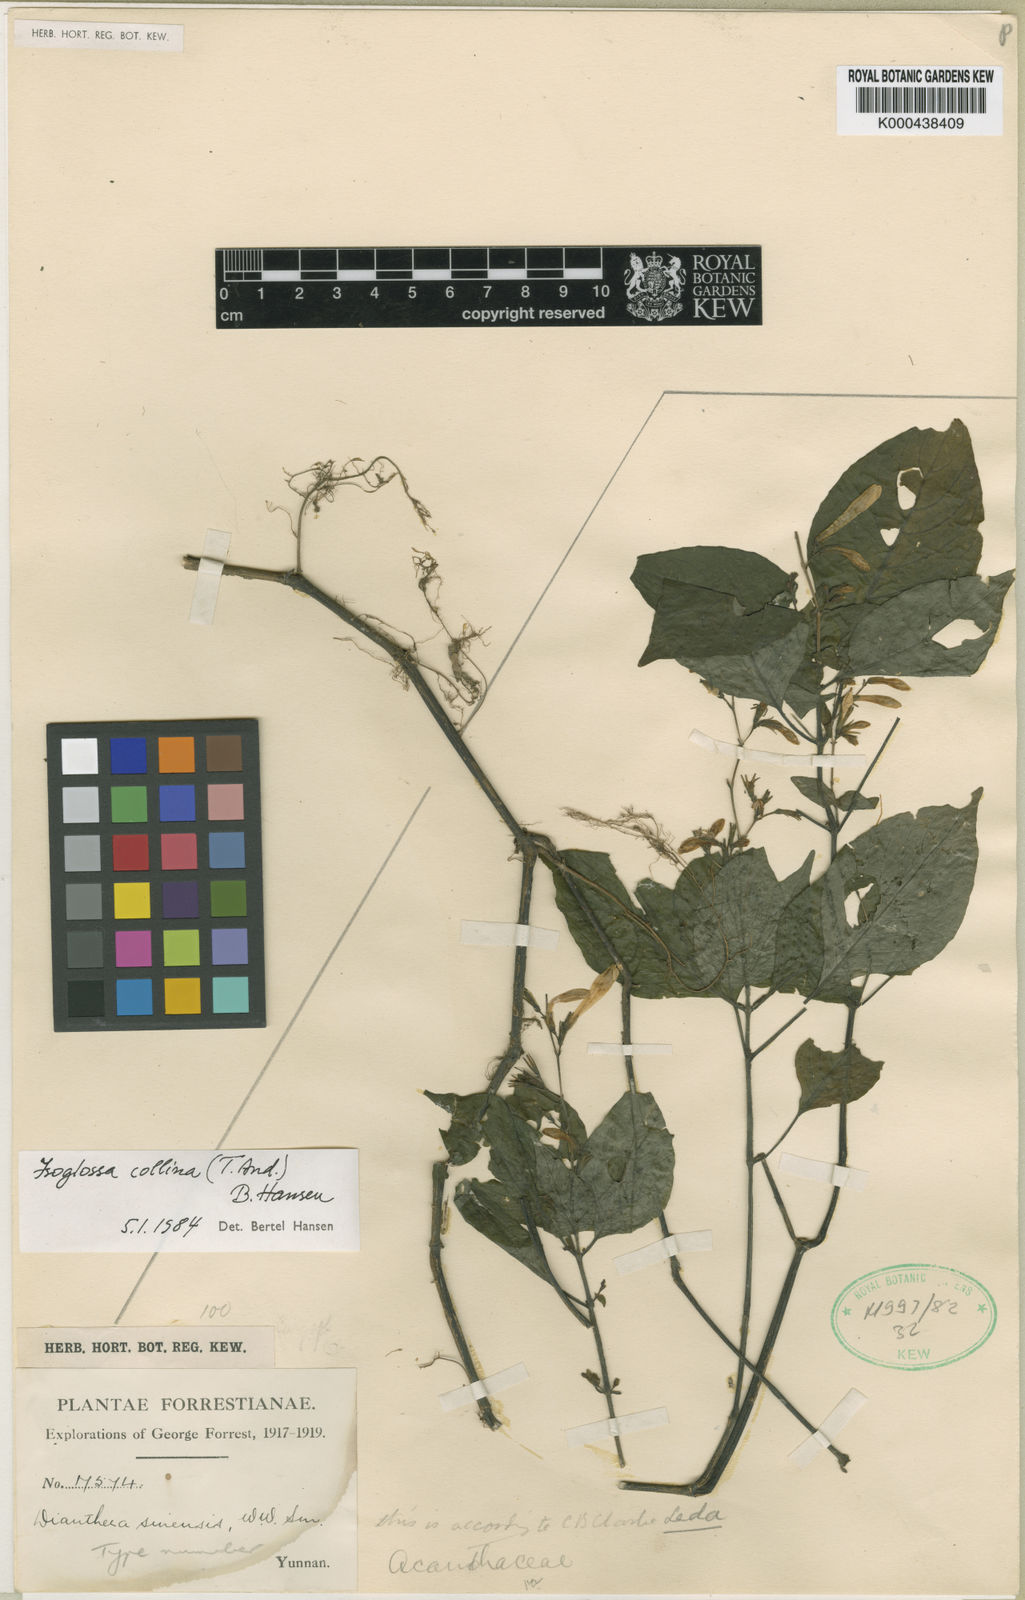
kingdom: Plantae
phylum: Tracheophyta
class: Magnoliopsida
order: Lamiales
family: Acanthaceae
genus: Isoglossa
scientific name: Isoglossa collina
